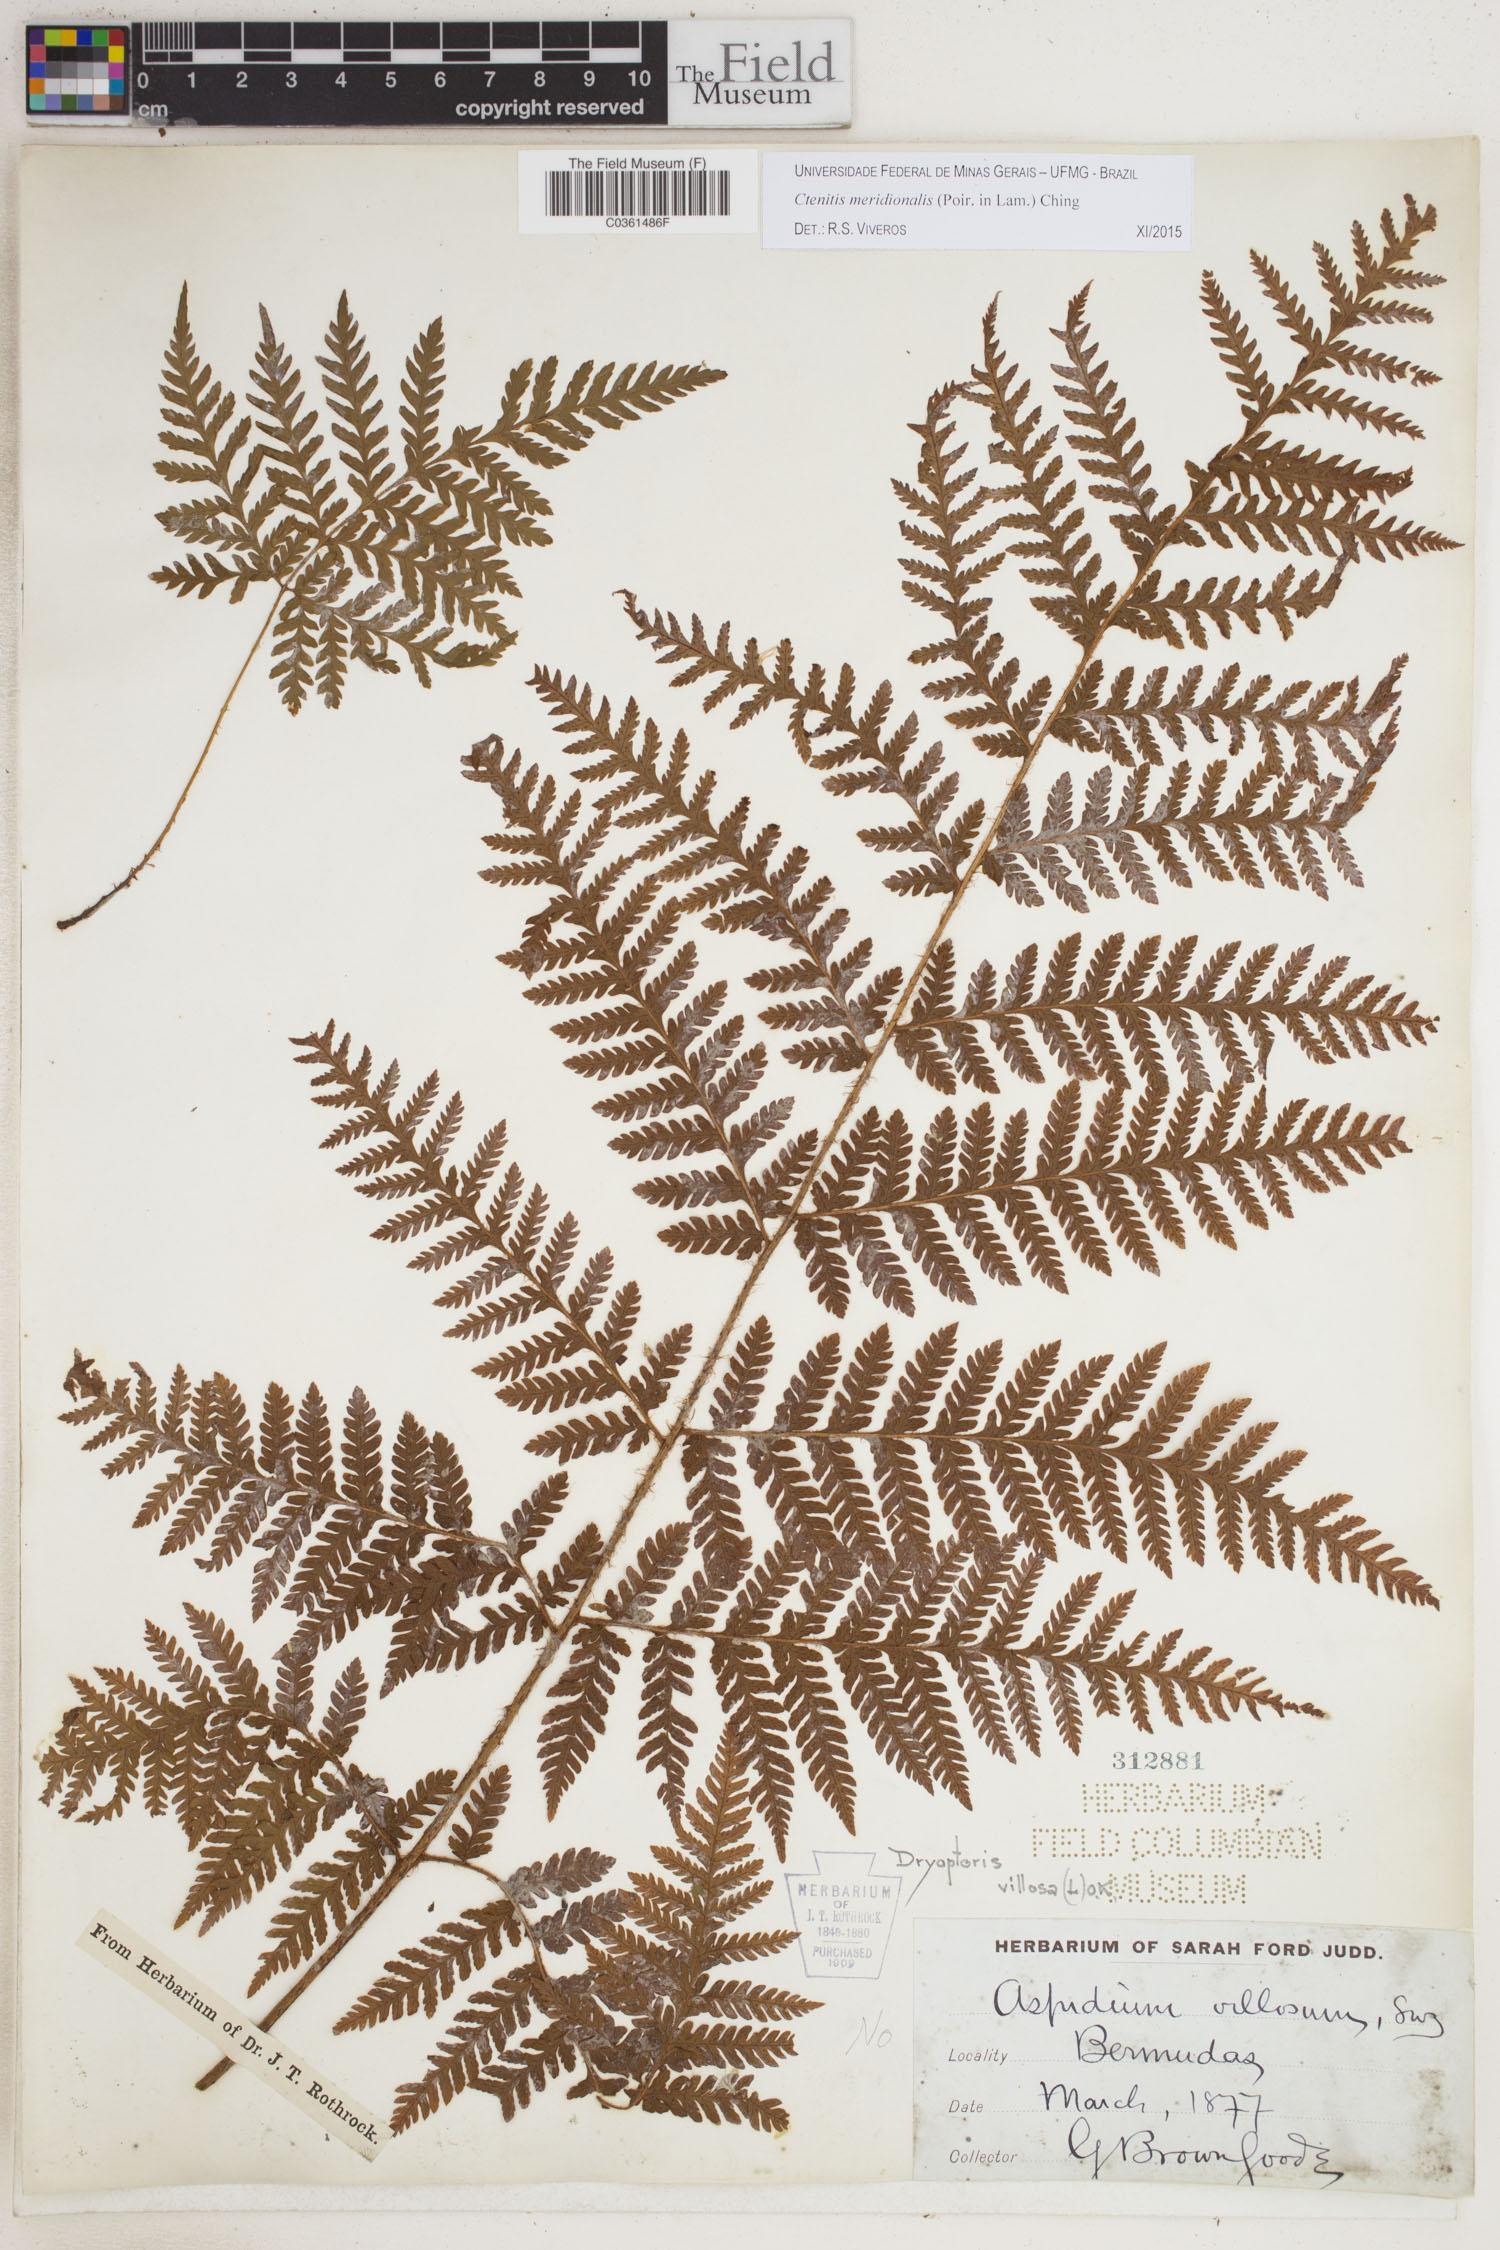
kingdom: Plantae
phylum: Tracheophyta
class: Polypodiopsida
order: Polypodiales
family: Dryopteridaceae
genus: Ctenitis
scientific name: Ctenitis meridionalis
